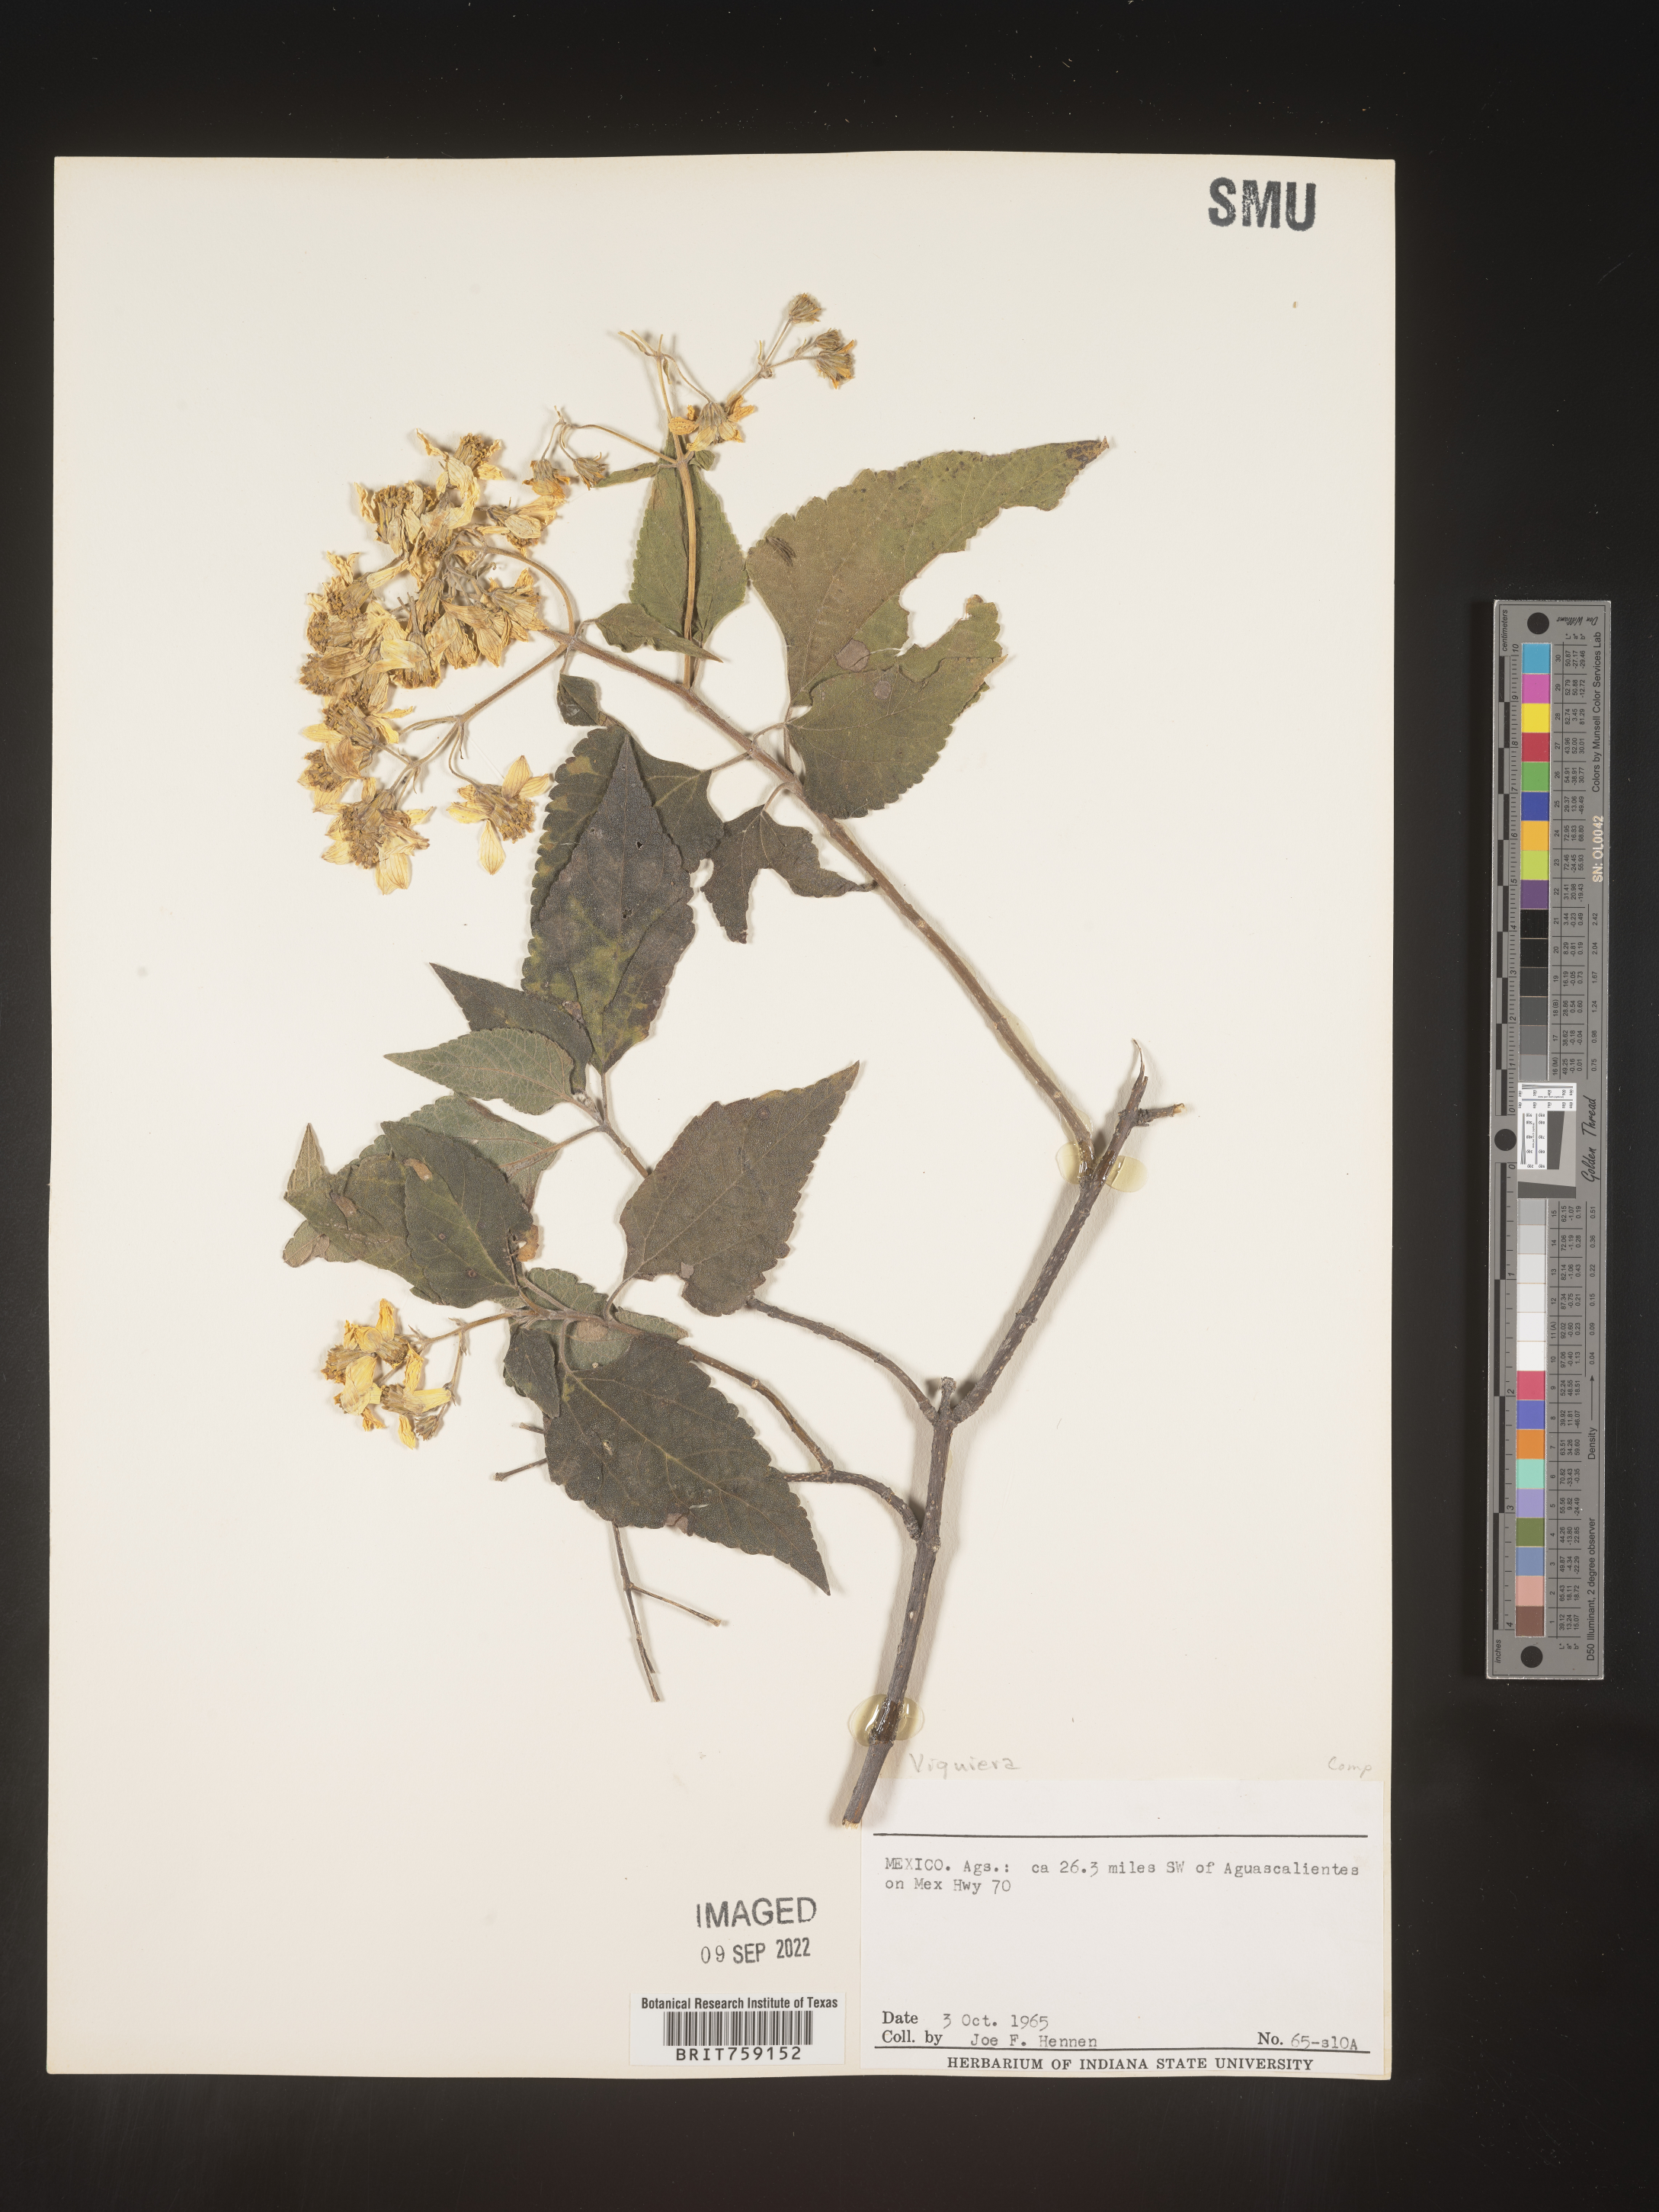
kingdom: Plantae
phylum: Tracheophyta
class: Magnoliopsida
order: Asterales
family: Asteraceae
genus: Viguiera
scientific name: Viguiera
